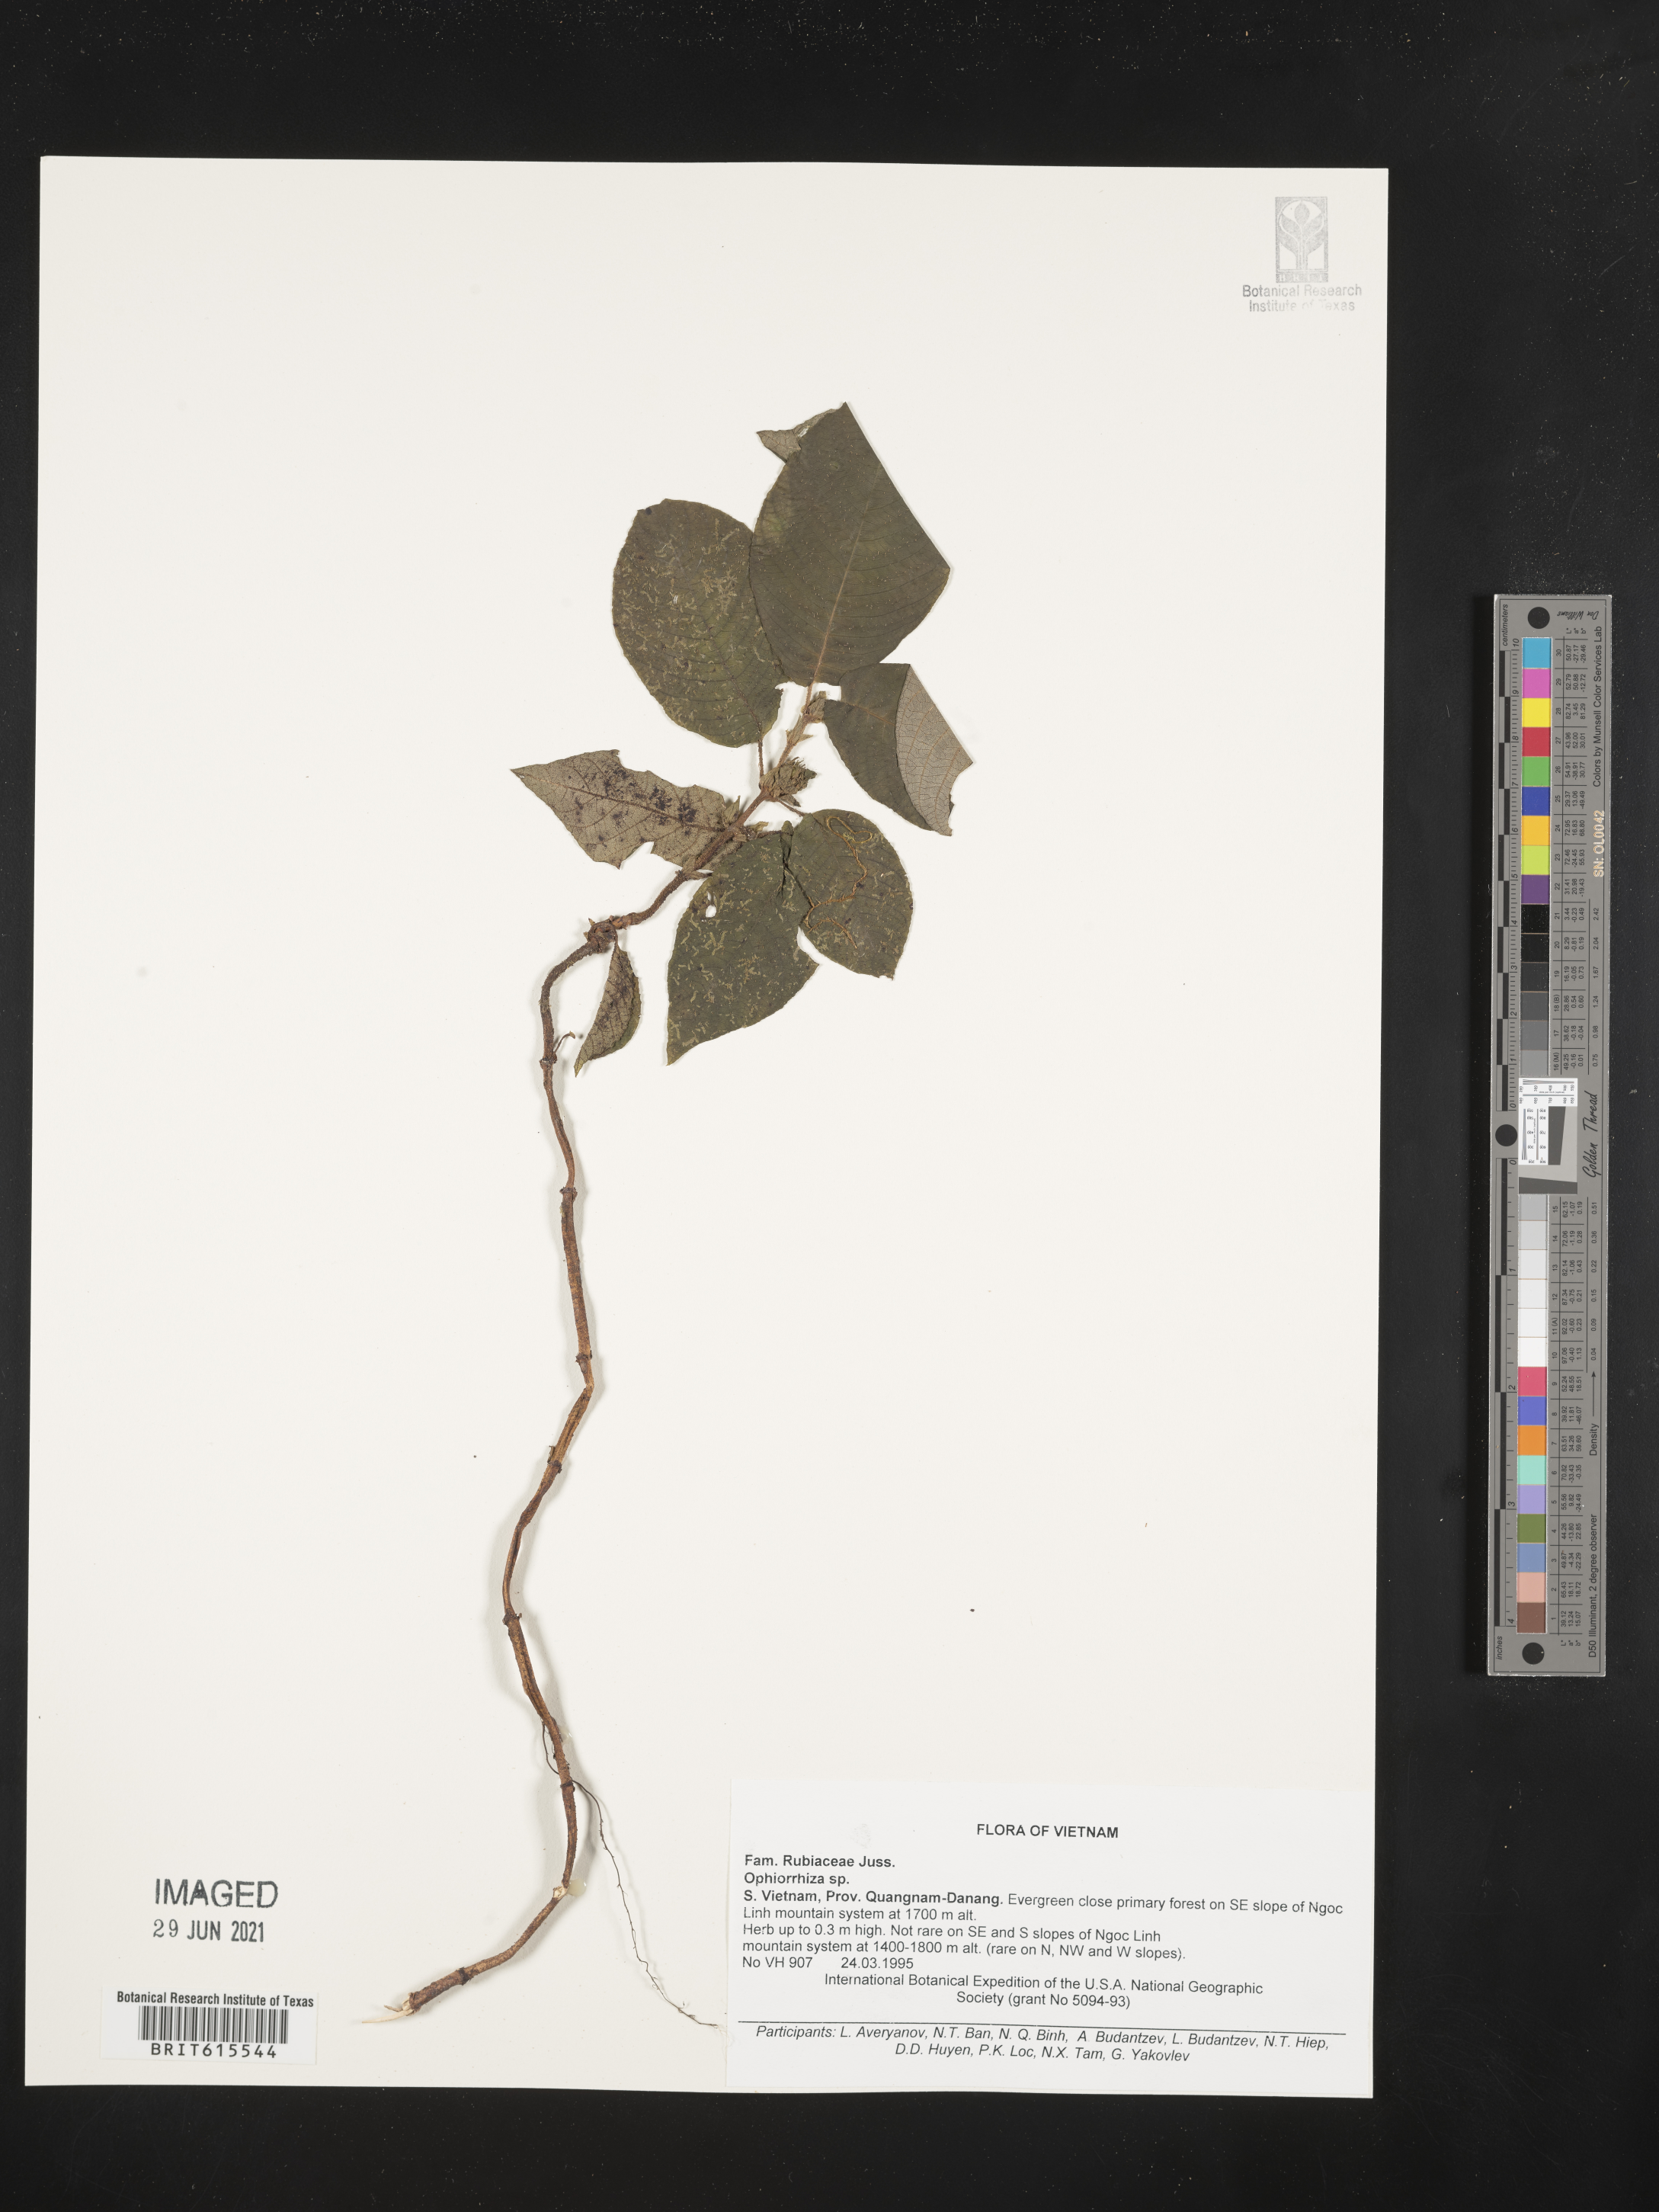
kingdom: Plantae
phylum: Tracheophyta
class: Magnoliopsida
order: Gentianales
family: Rubiaceae
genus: Ophiorrhiza
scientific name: Ophiorrhiza
